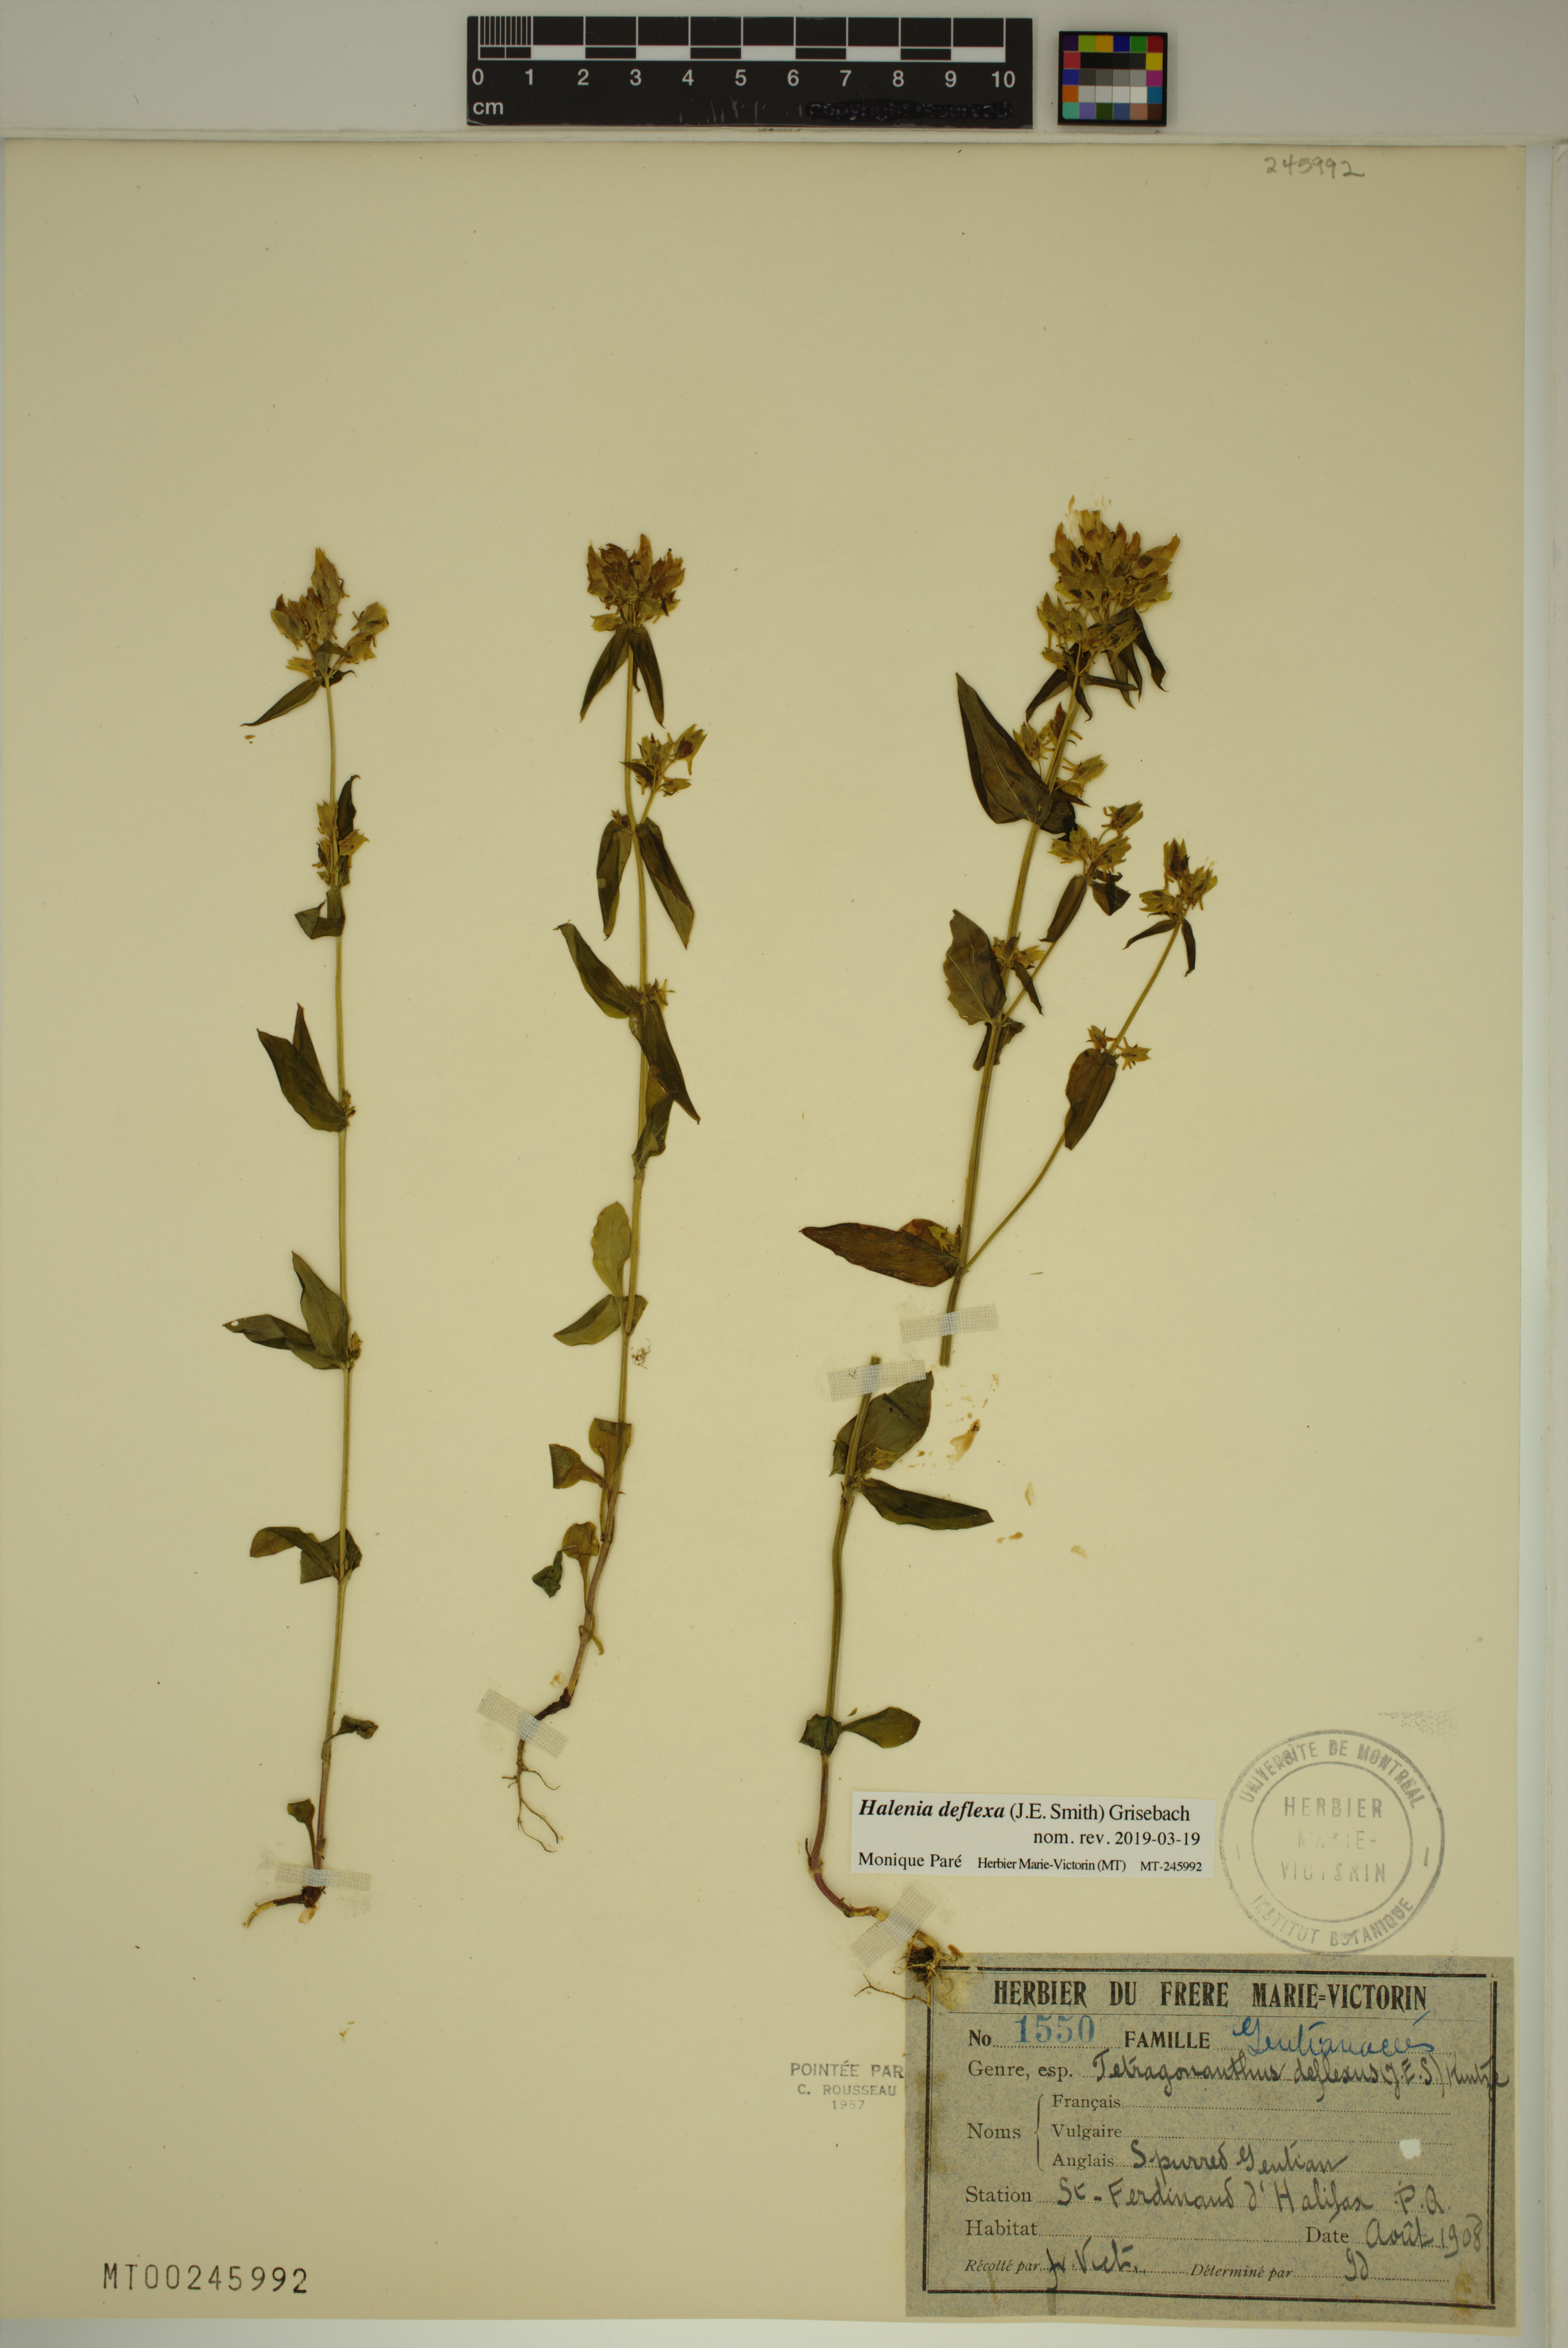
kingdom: Plantae
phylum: Tracheophyta
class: Magnoliopsida
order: Gentianales
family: Gentianaceae
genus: Halenia
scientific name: Halenia deflexa
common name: American spurred gentian
